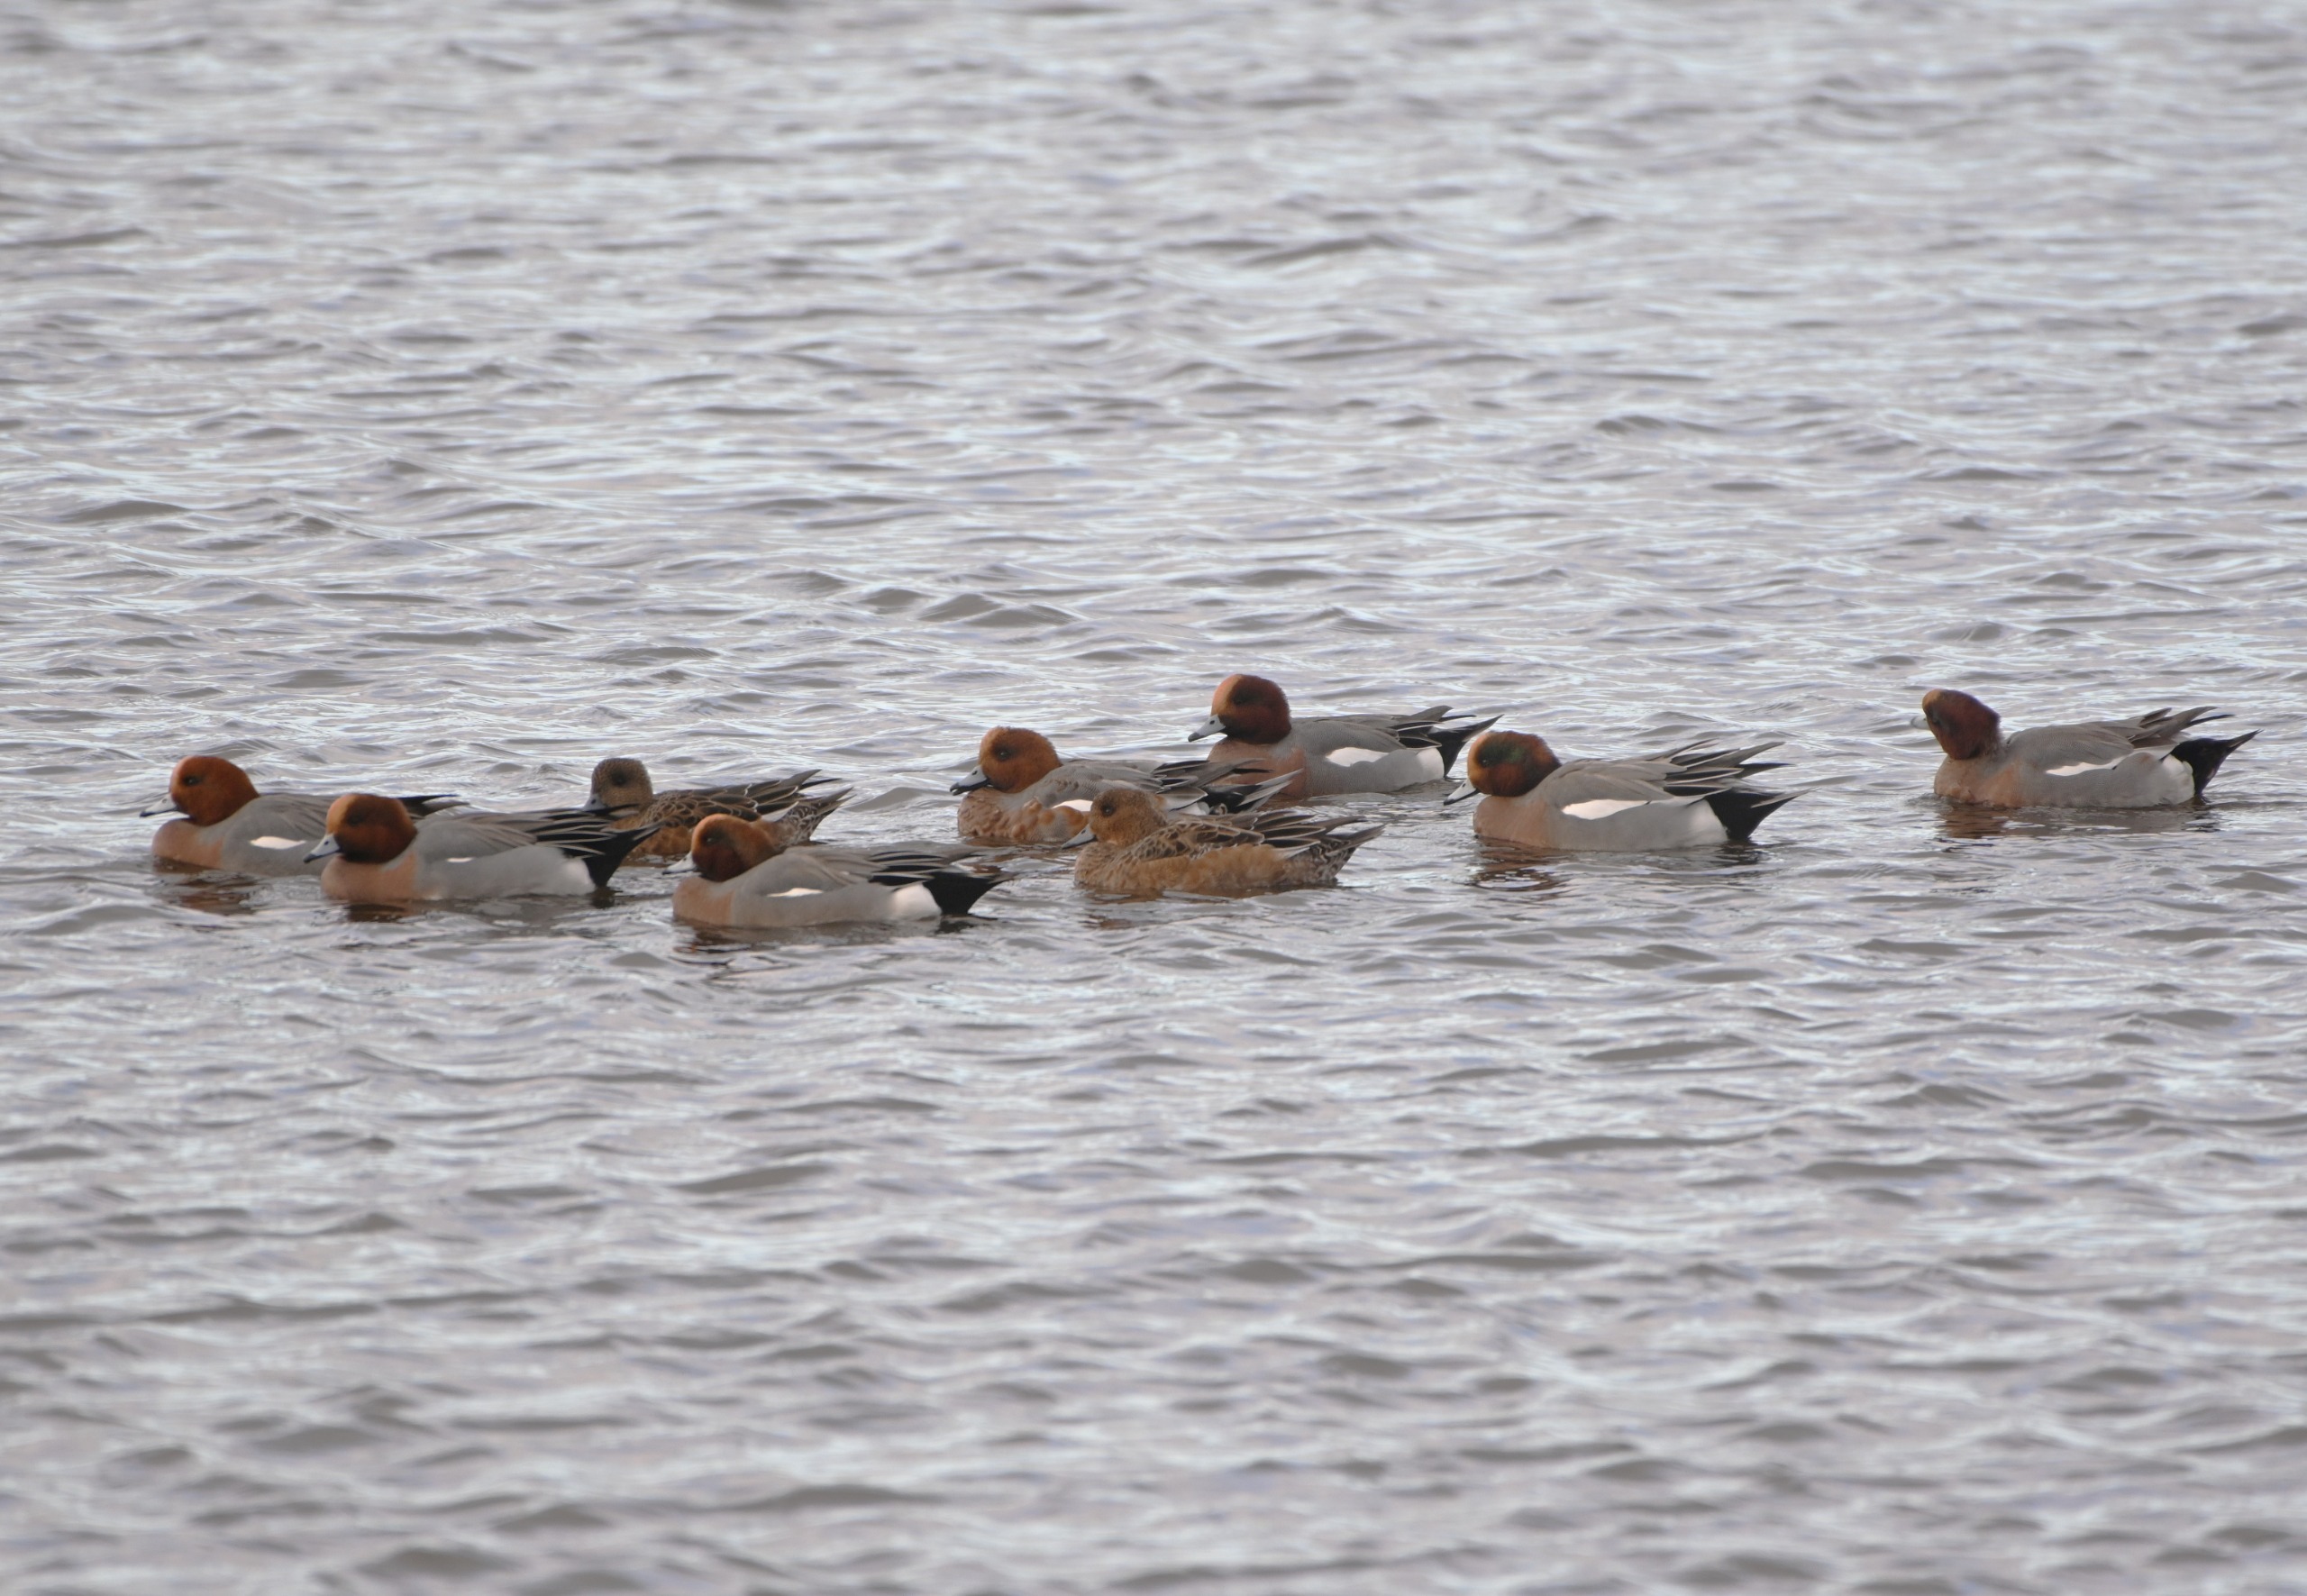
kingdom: Animalia
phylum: Chordata
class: Aves
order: Anseriformes
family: Anatidae
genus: Mareca
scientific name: Mareca penelope
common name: Pibeand
